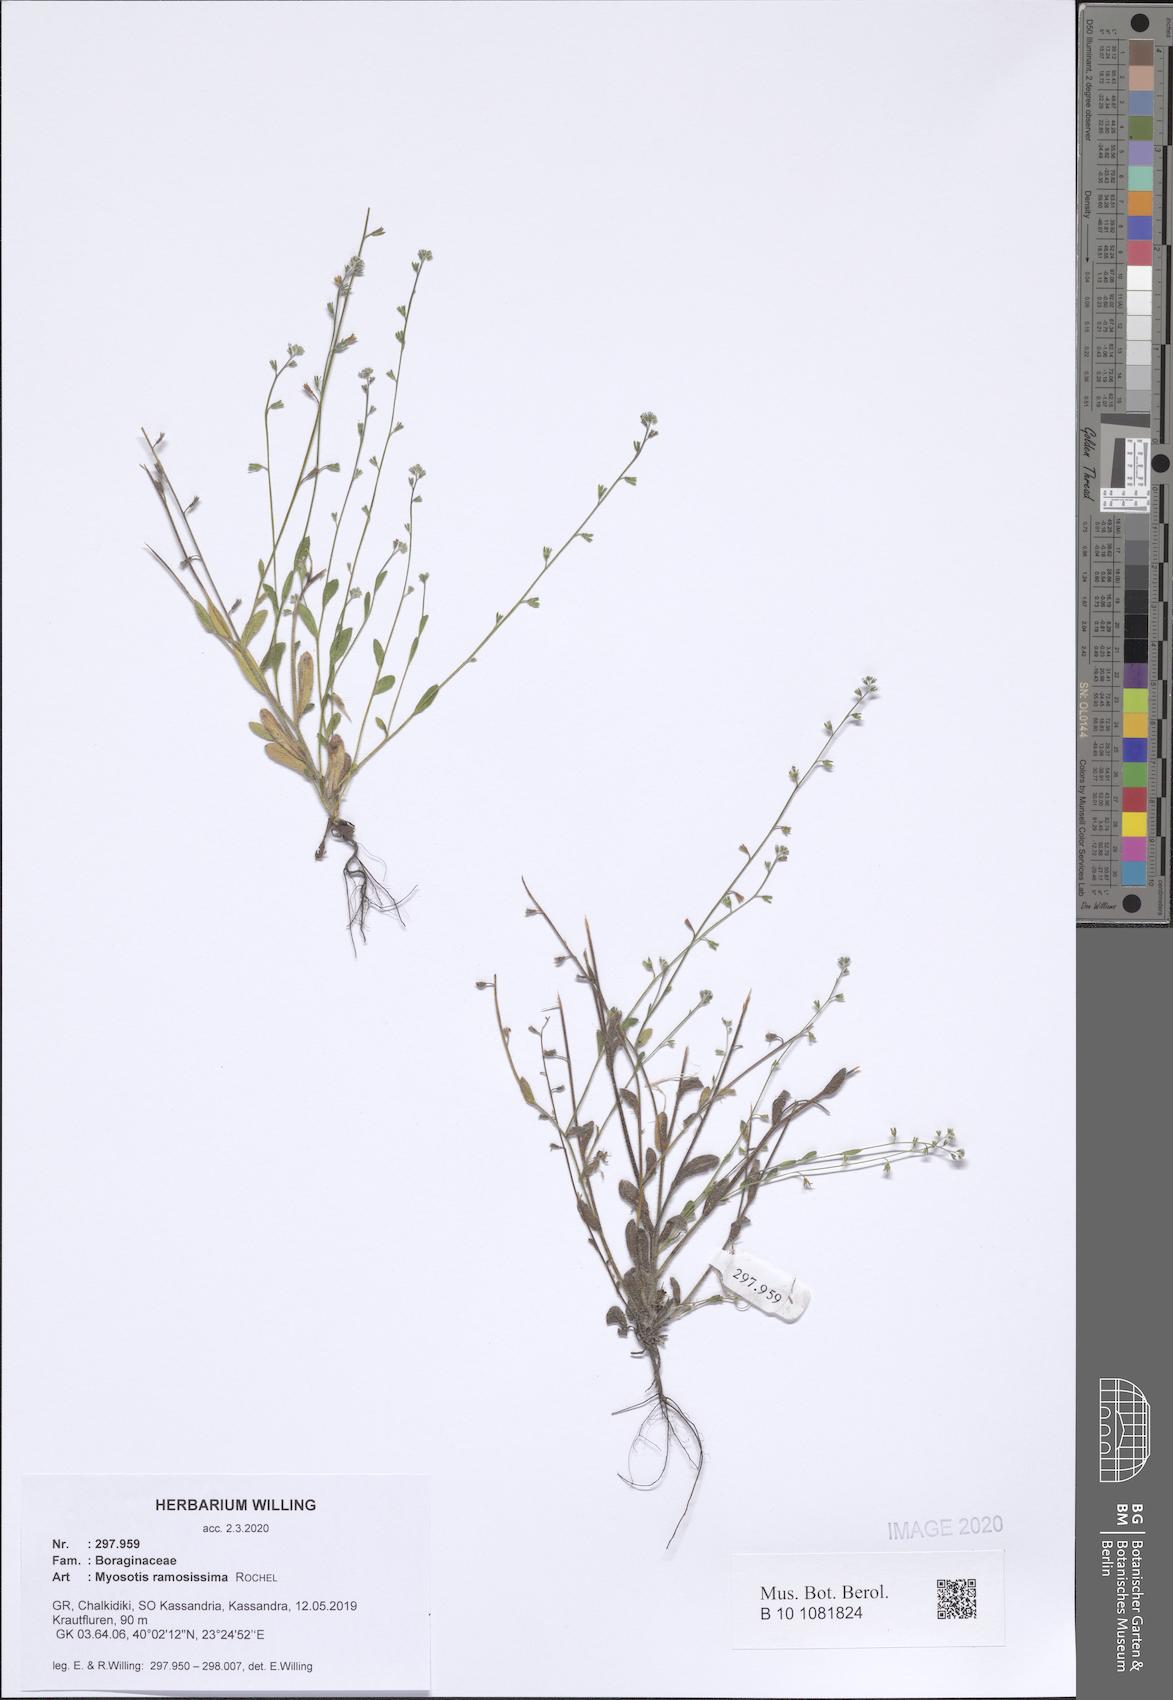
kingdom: Plantae
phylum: Tracheophyta
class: Magnoliopsida
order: Boraginales
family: Boraginaceae
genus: Myosotis
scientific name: Myosotis ramosissima
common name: Early forget-me-not
